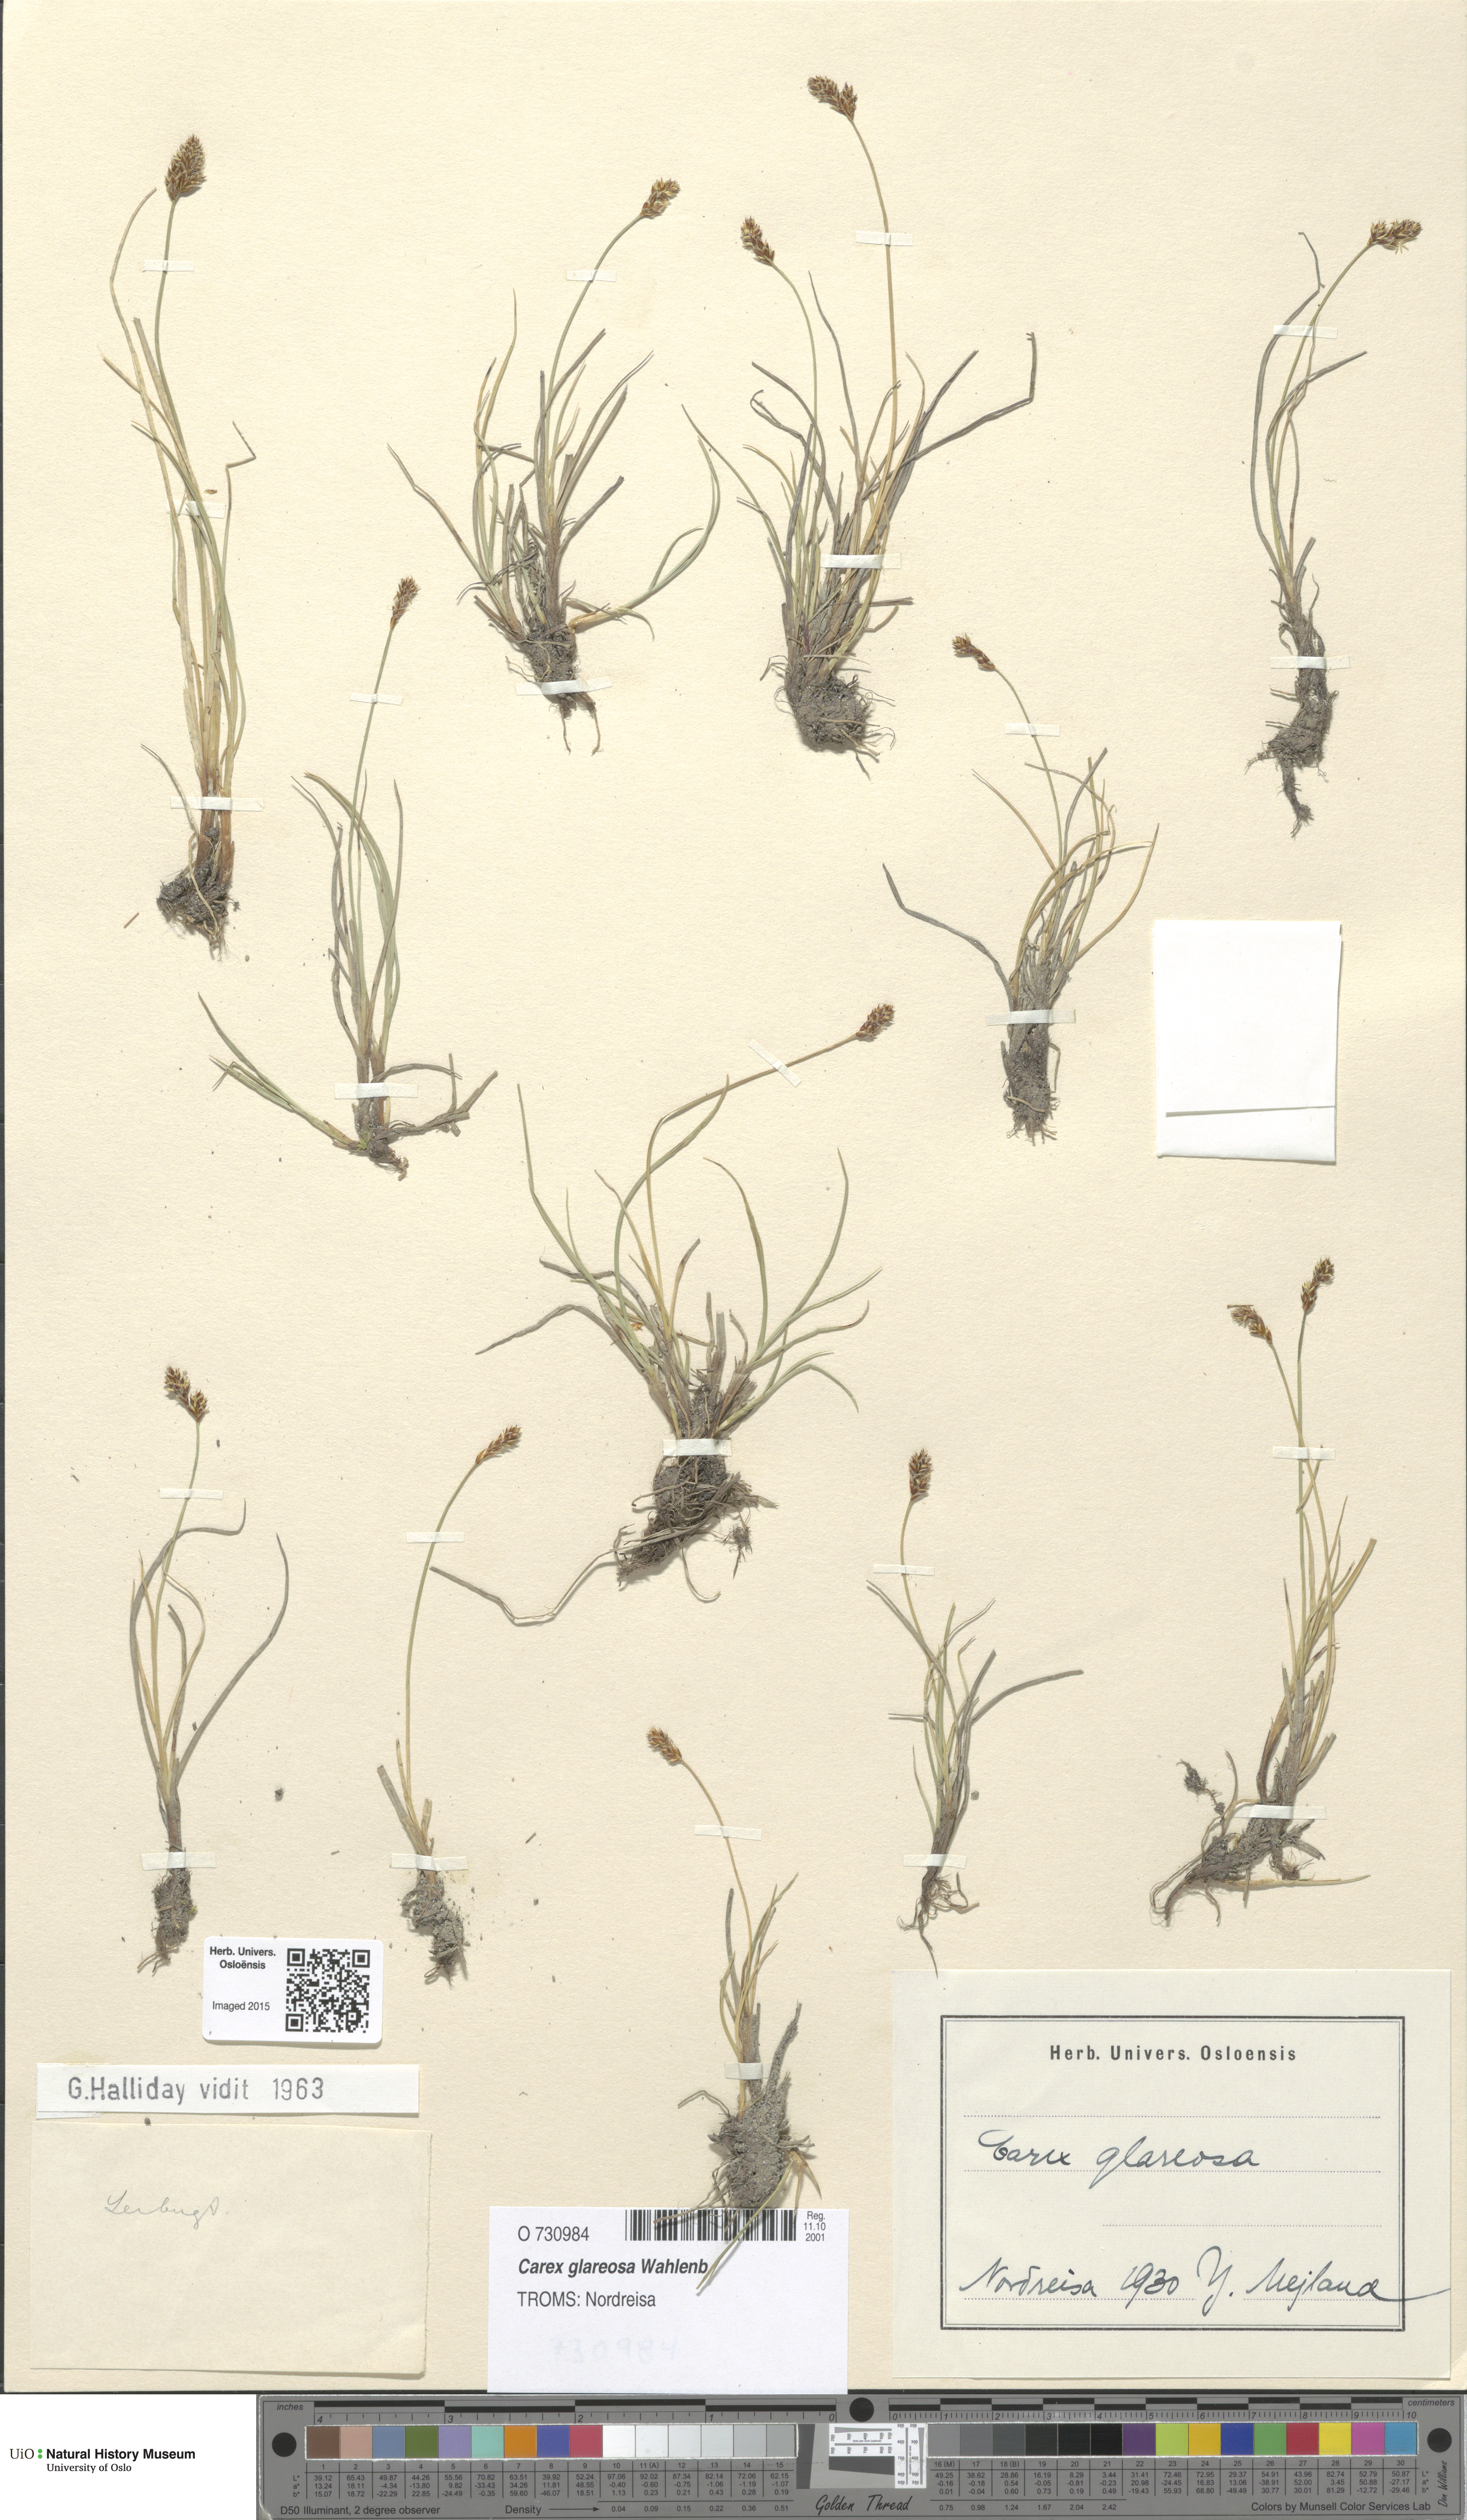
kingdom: Plantae
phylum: Tracheophyta
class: Liliopsida
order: Poales
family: Cyperaceae
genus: Carex
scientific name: Carex glareosa
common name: Clustered sedge
